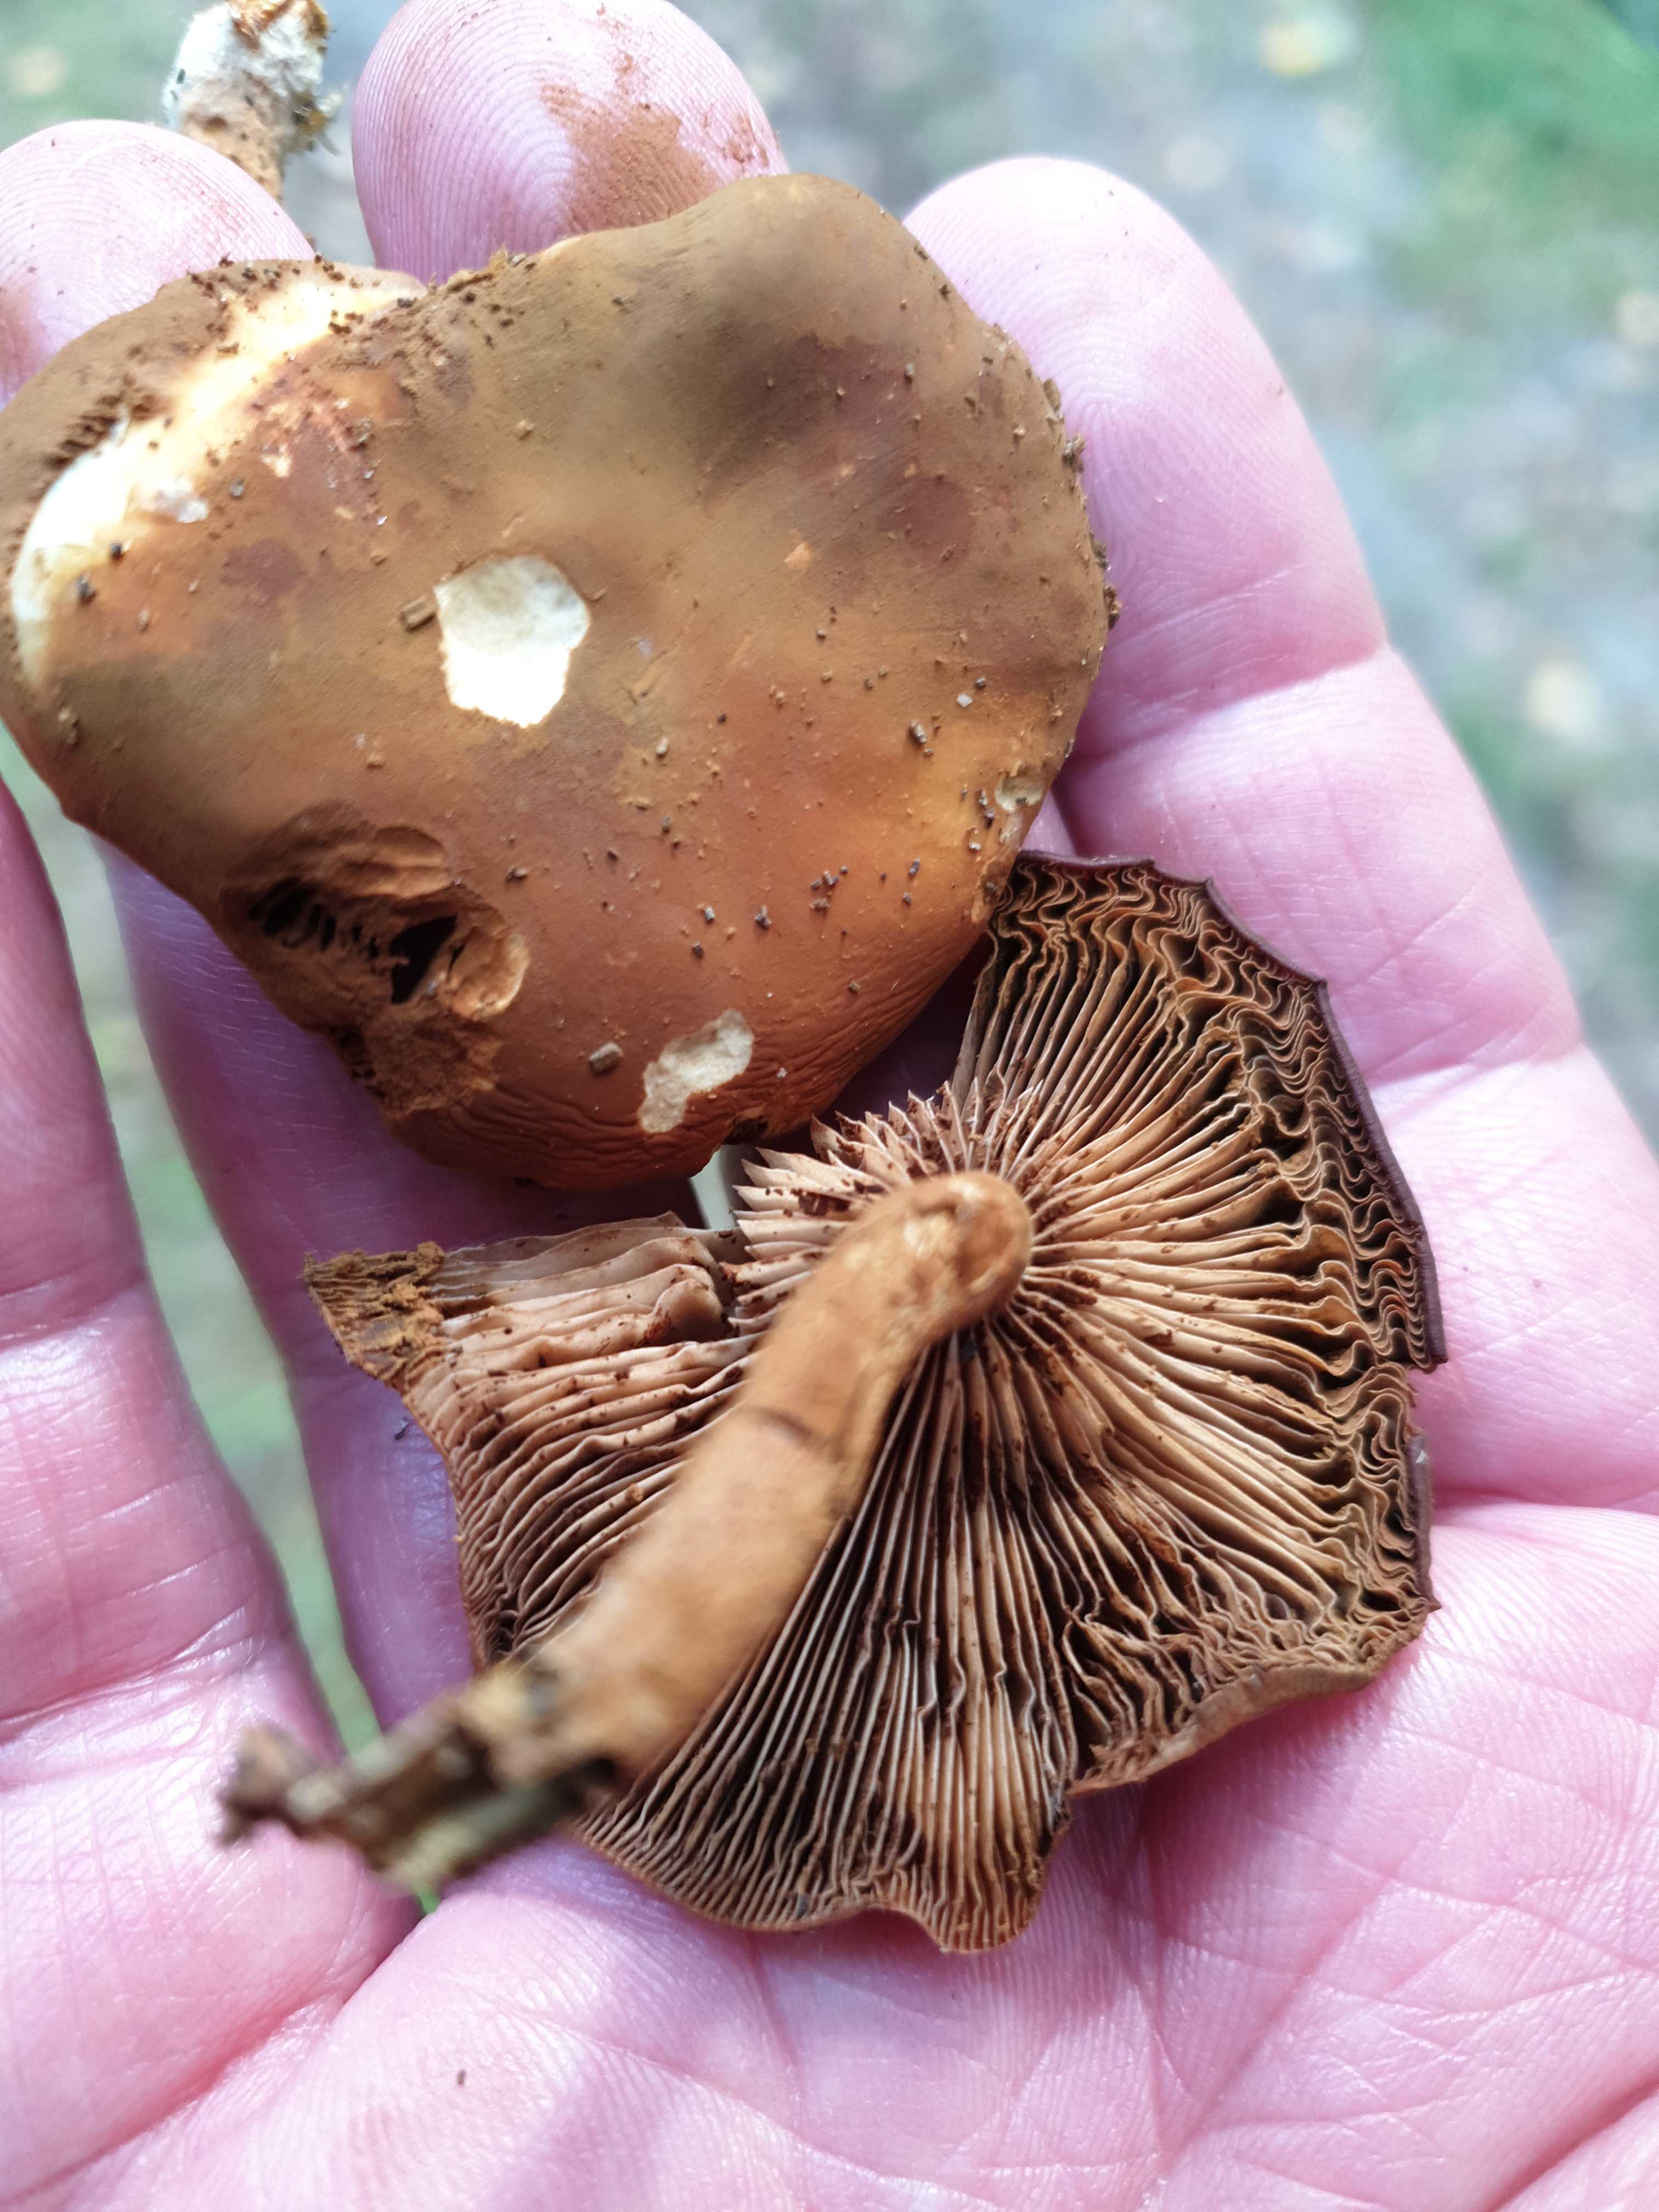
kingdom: Fungi
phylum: Basidiomycota
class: Agaricomycetes
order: Agaricales
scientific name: Agaricales
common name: champignonordenen
